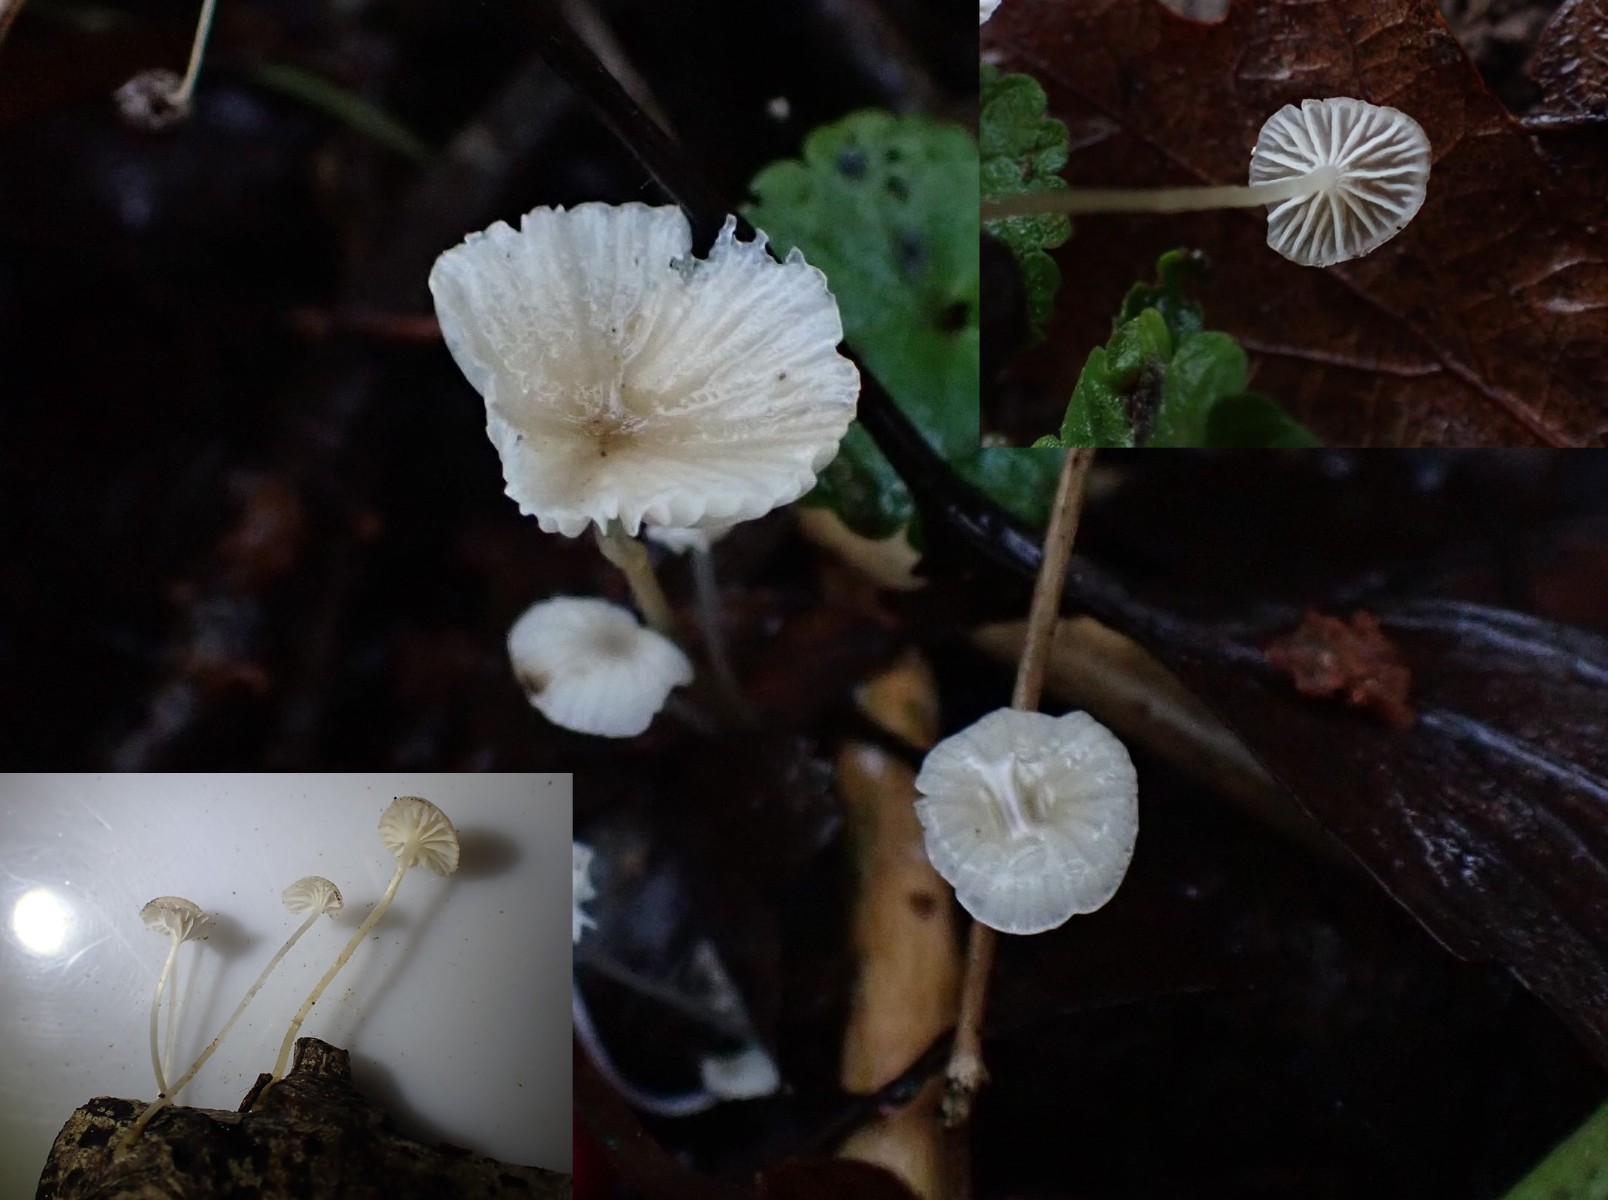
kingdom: Fungi
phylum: Basidiomycota
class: Agaricomycetes
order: Agaricales
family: Porotheleaceae
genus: Phloeomana
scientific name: Phloeomana speirea
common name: kvist-huesvamp
